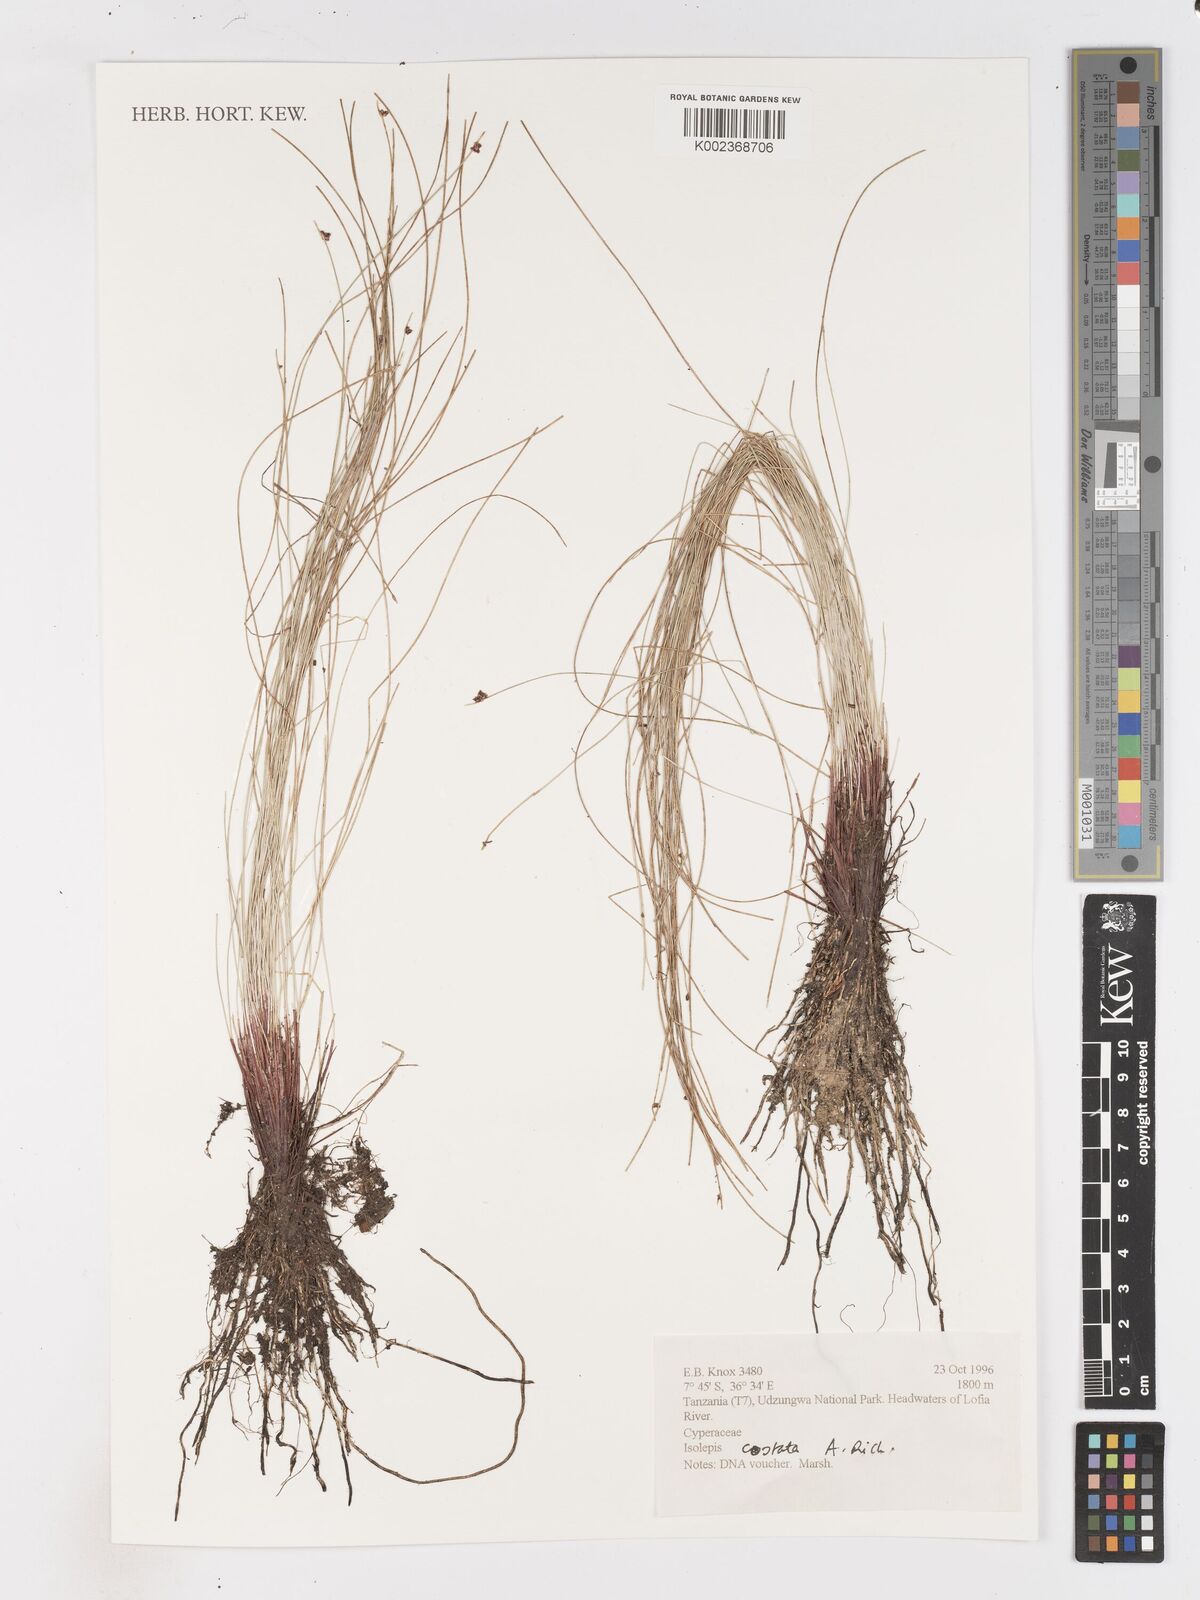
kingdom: Plantae
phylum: Tracheophyta
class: Liliopsida
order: Poales
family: Cyperaceae
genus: Isolepis
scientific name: Isolepis costata
